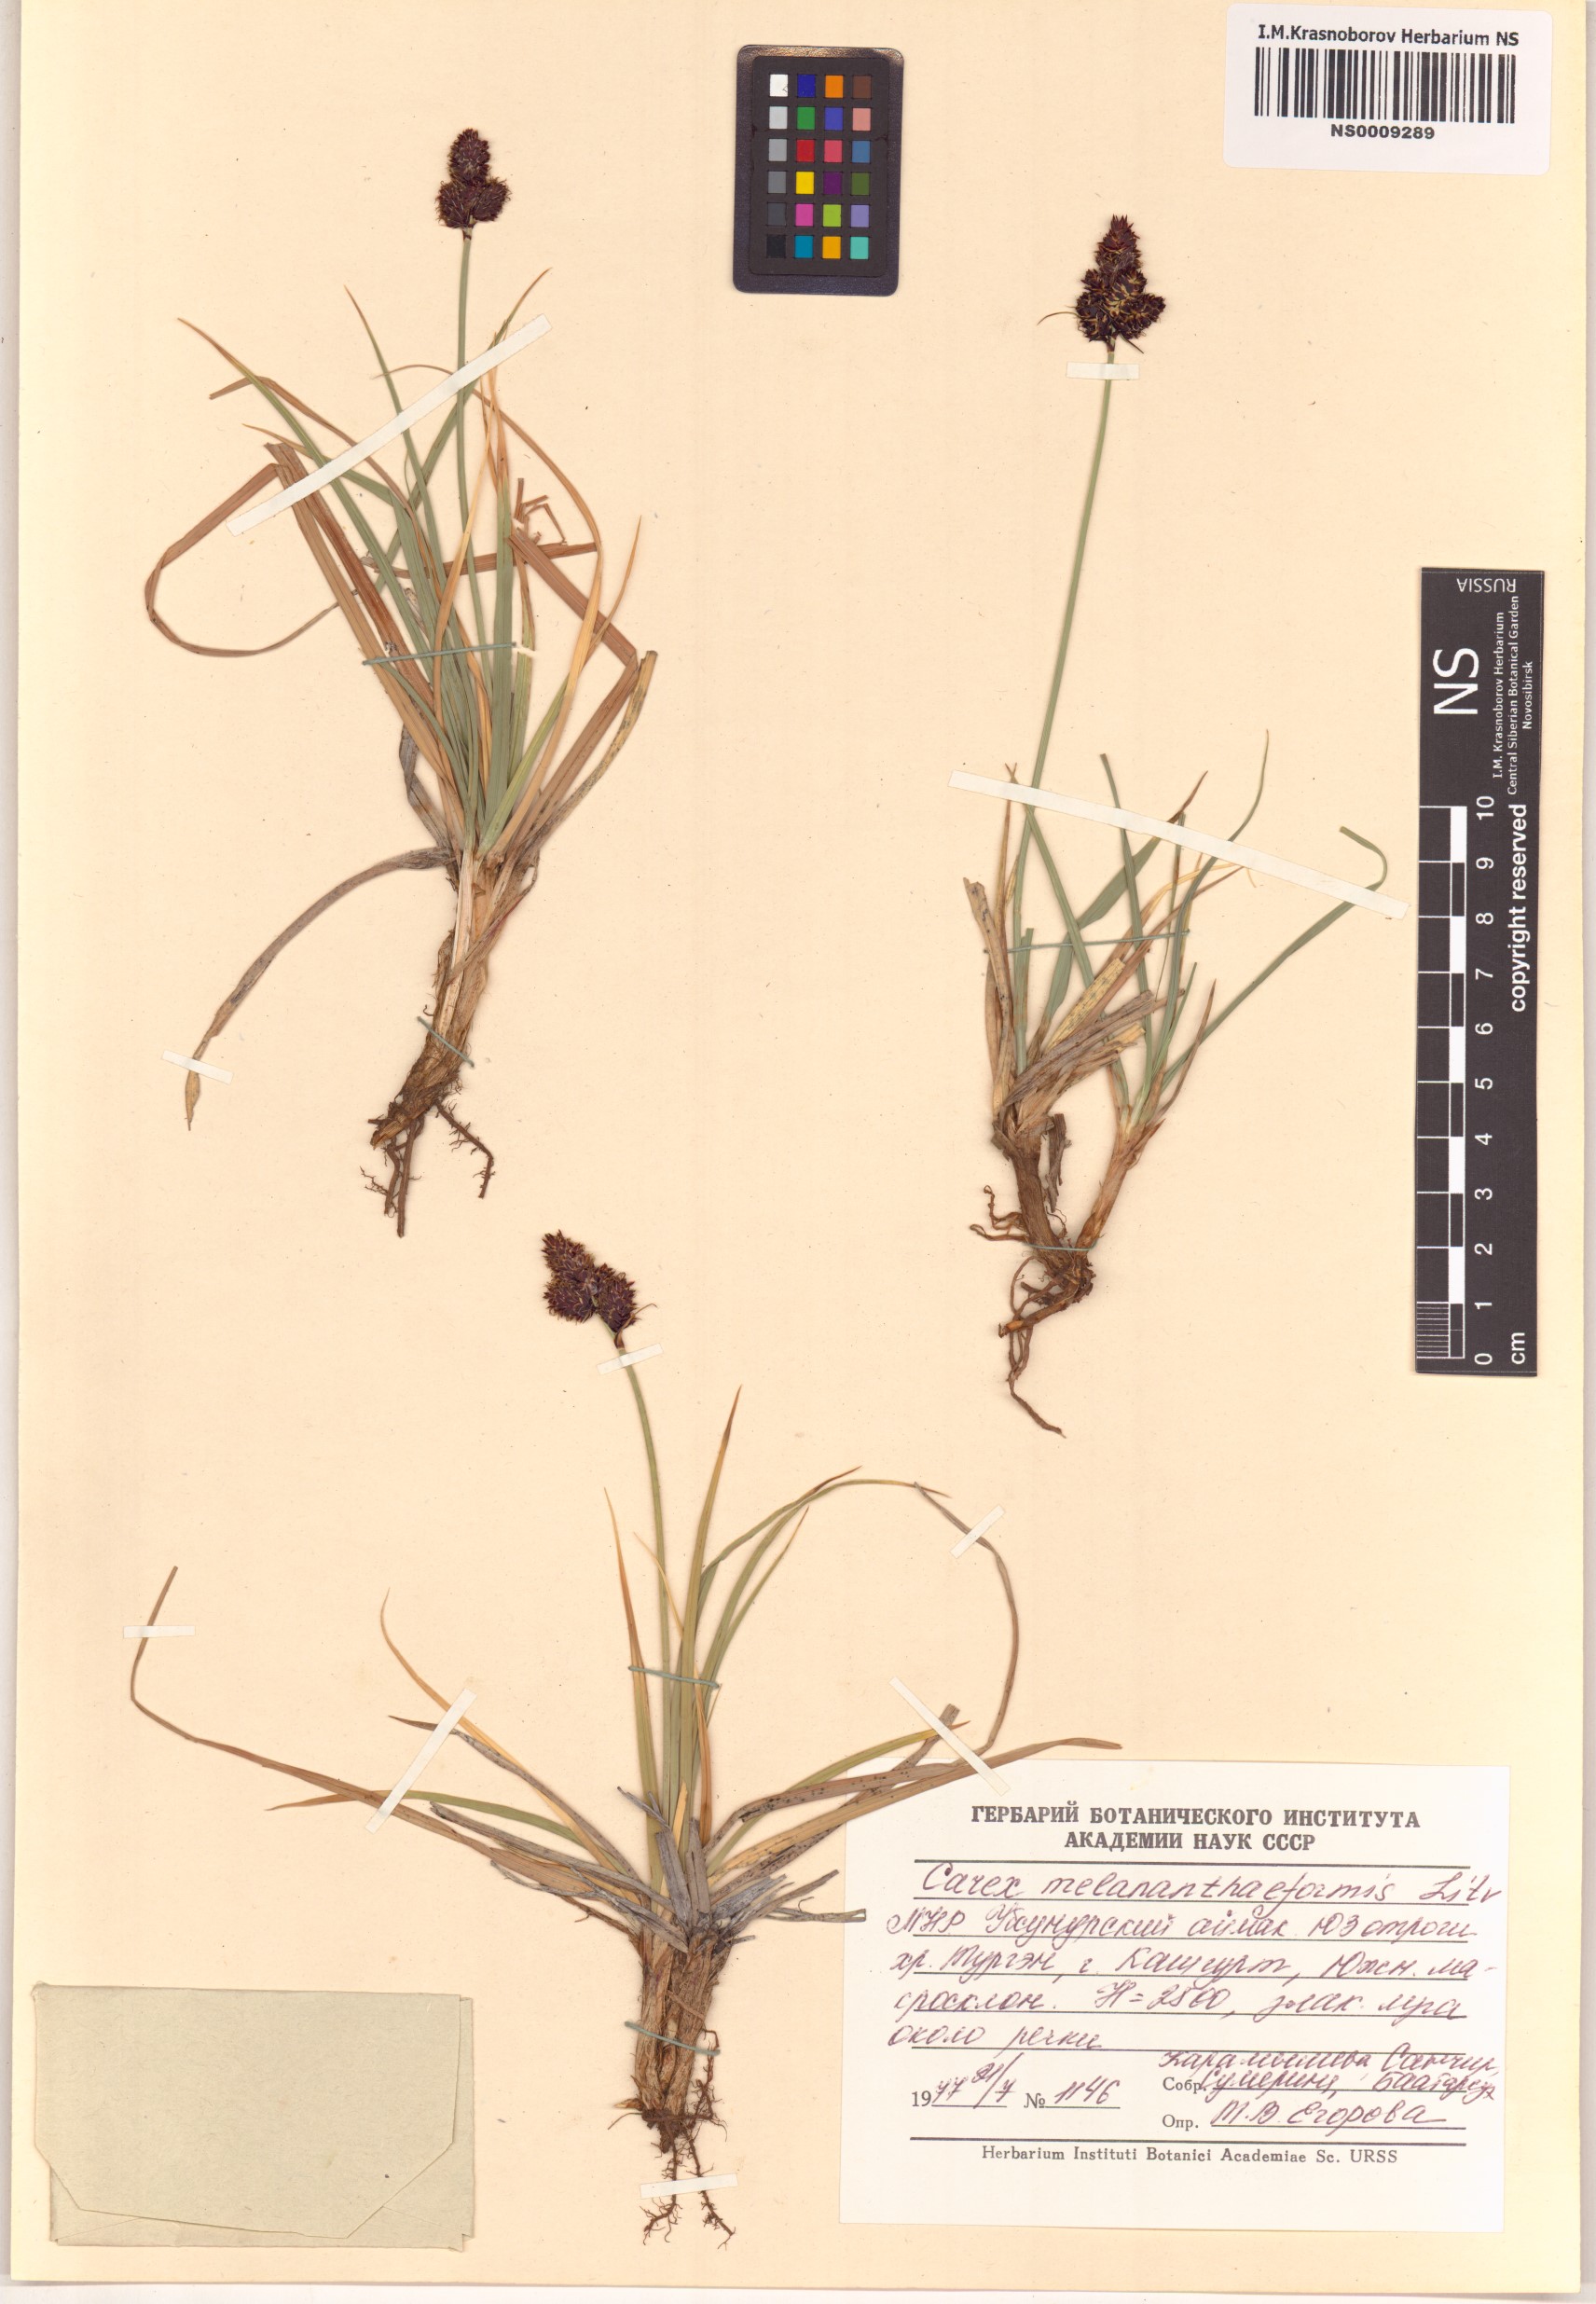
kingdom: Plantae
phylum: Tracheophyta
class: Liliopsida
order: Poales
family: Cyperaceae
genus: Carex
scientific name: Carex melananthiformis
